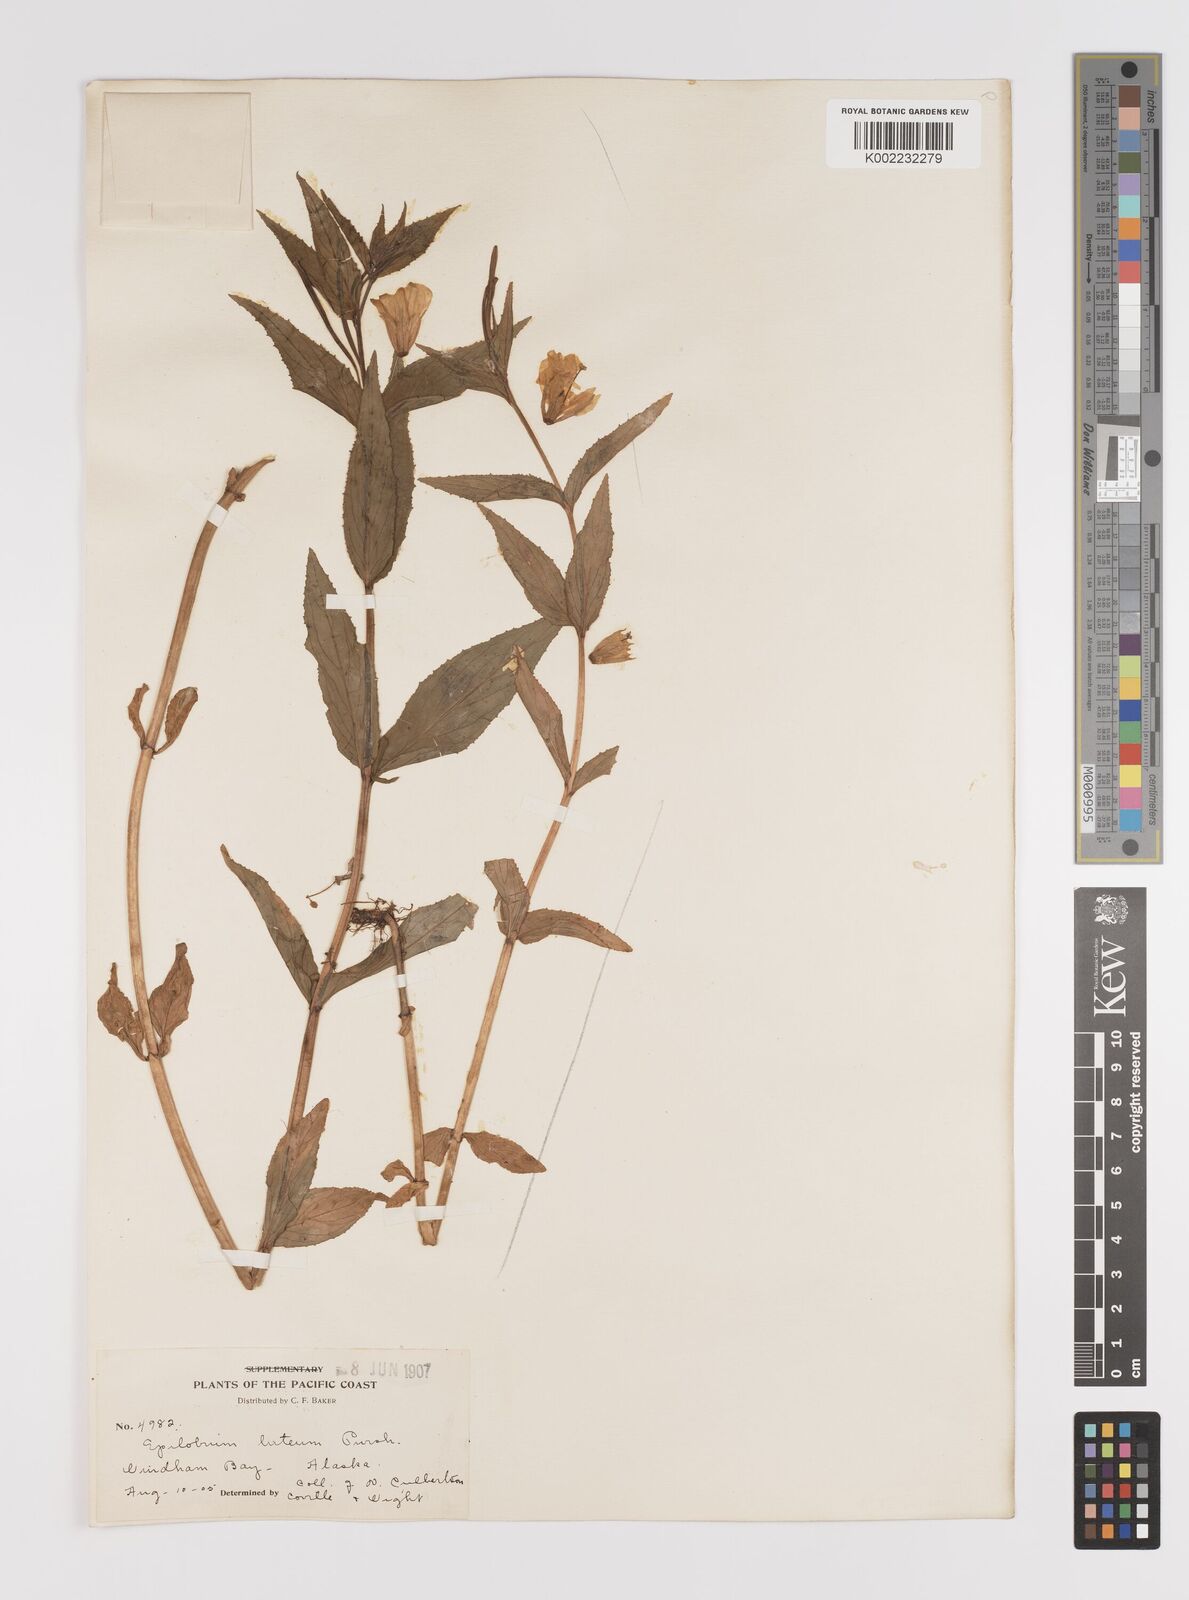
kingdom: Plantae
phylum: Tracheophyta
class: Magnoliopsida
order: Myrtales
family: Onagraceae
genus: Epilobium
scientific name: Epilobium luteum
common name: Yellow willowherb
